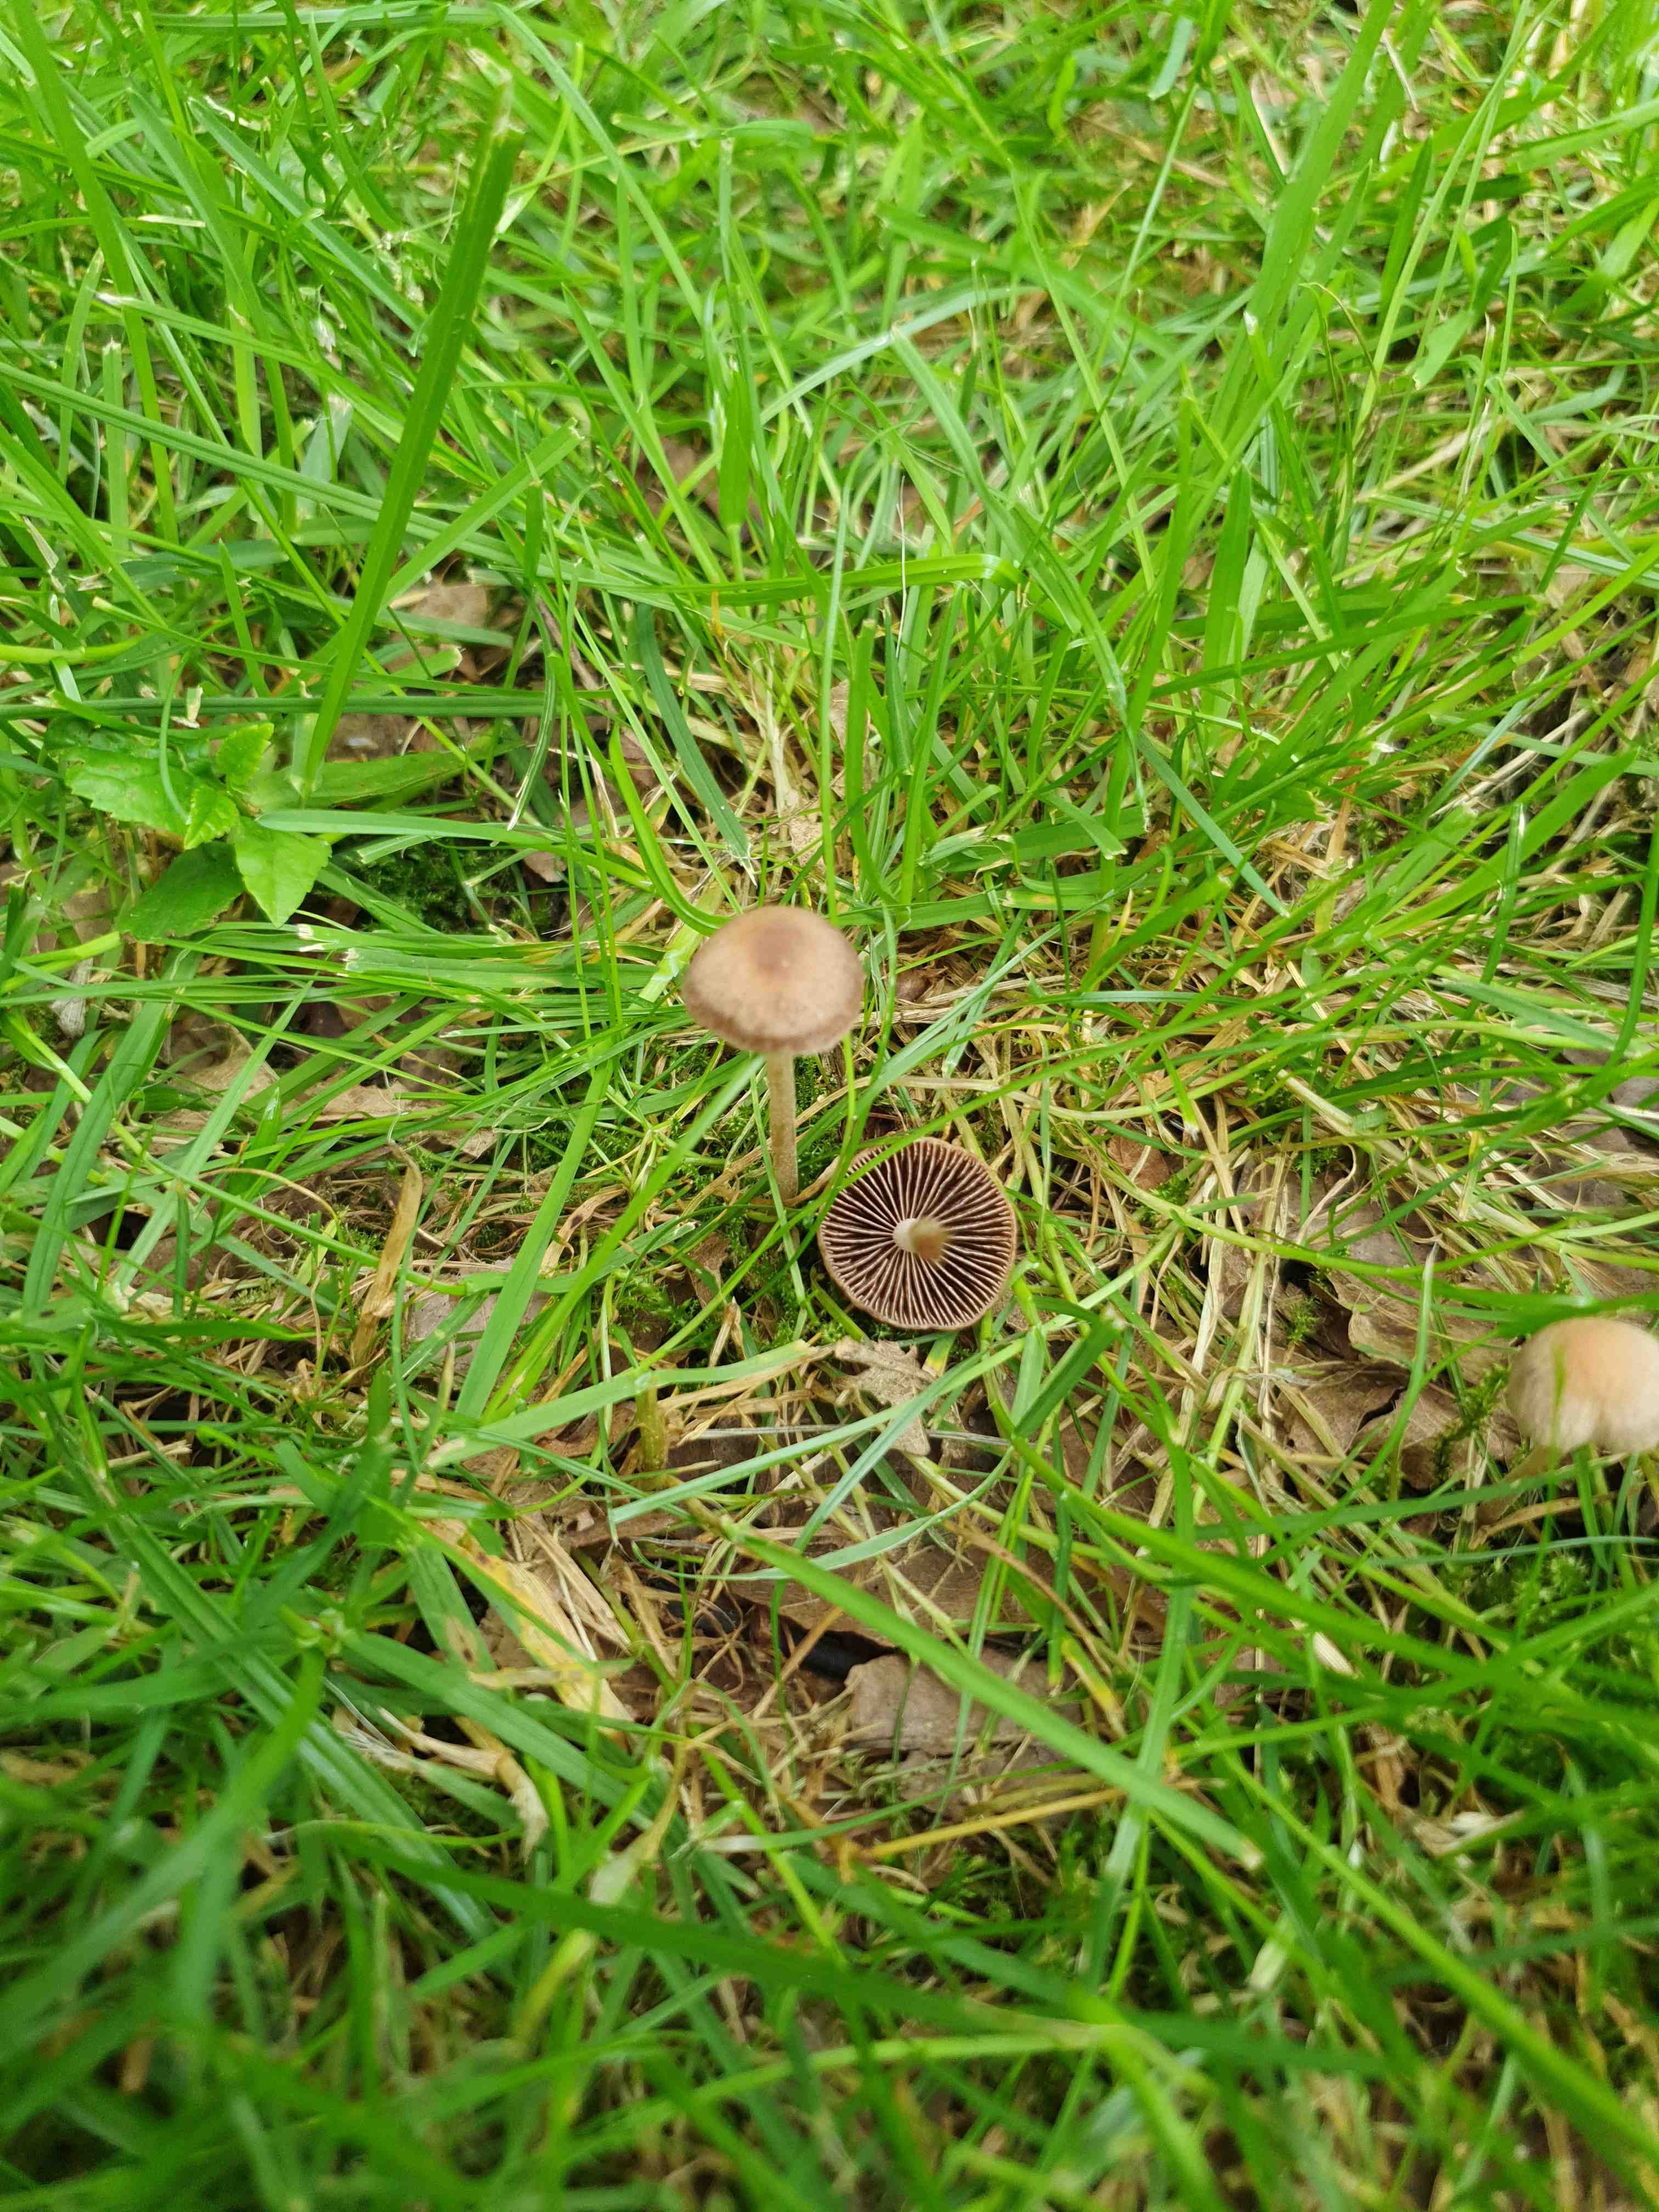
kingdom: Fungi
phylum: Basidiomycota
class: Agaricomycetes
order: Agaricales
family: Bolbitiaceae
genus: Panaeolina
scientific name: Panaeolina foenisecii
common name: høslætsvamp
